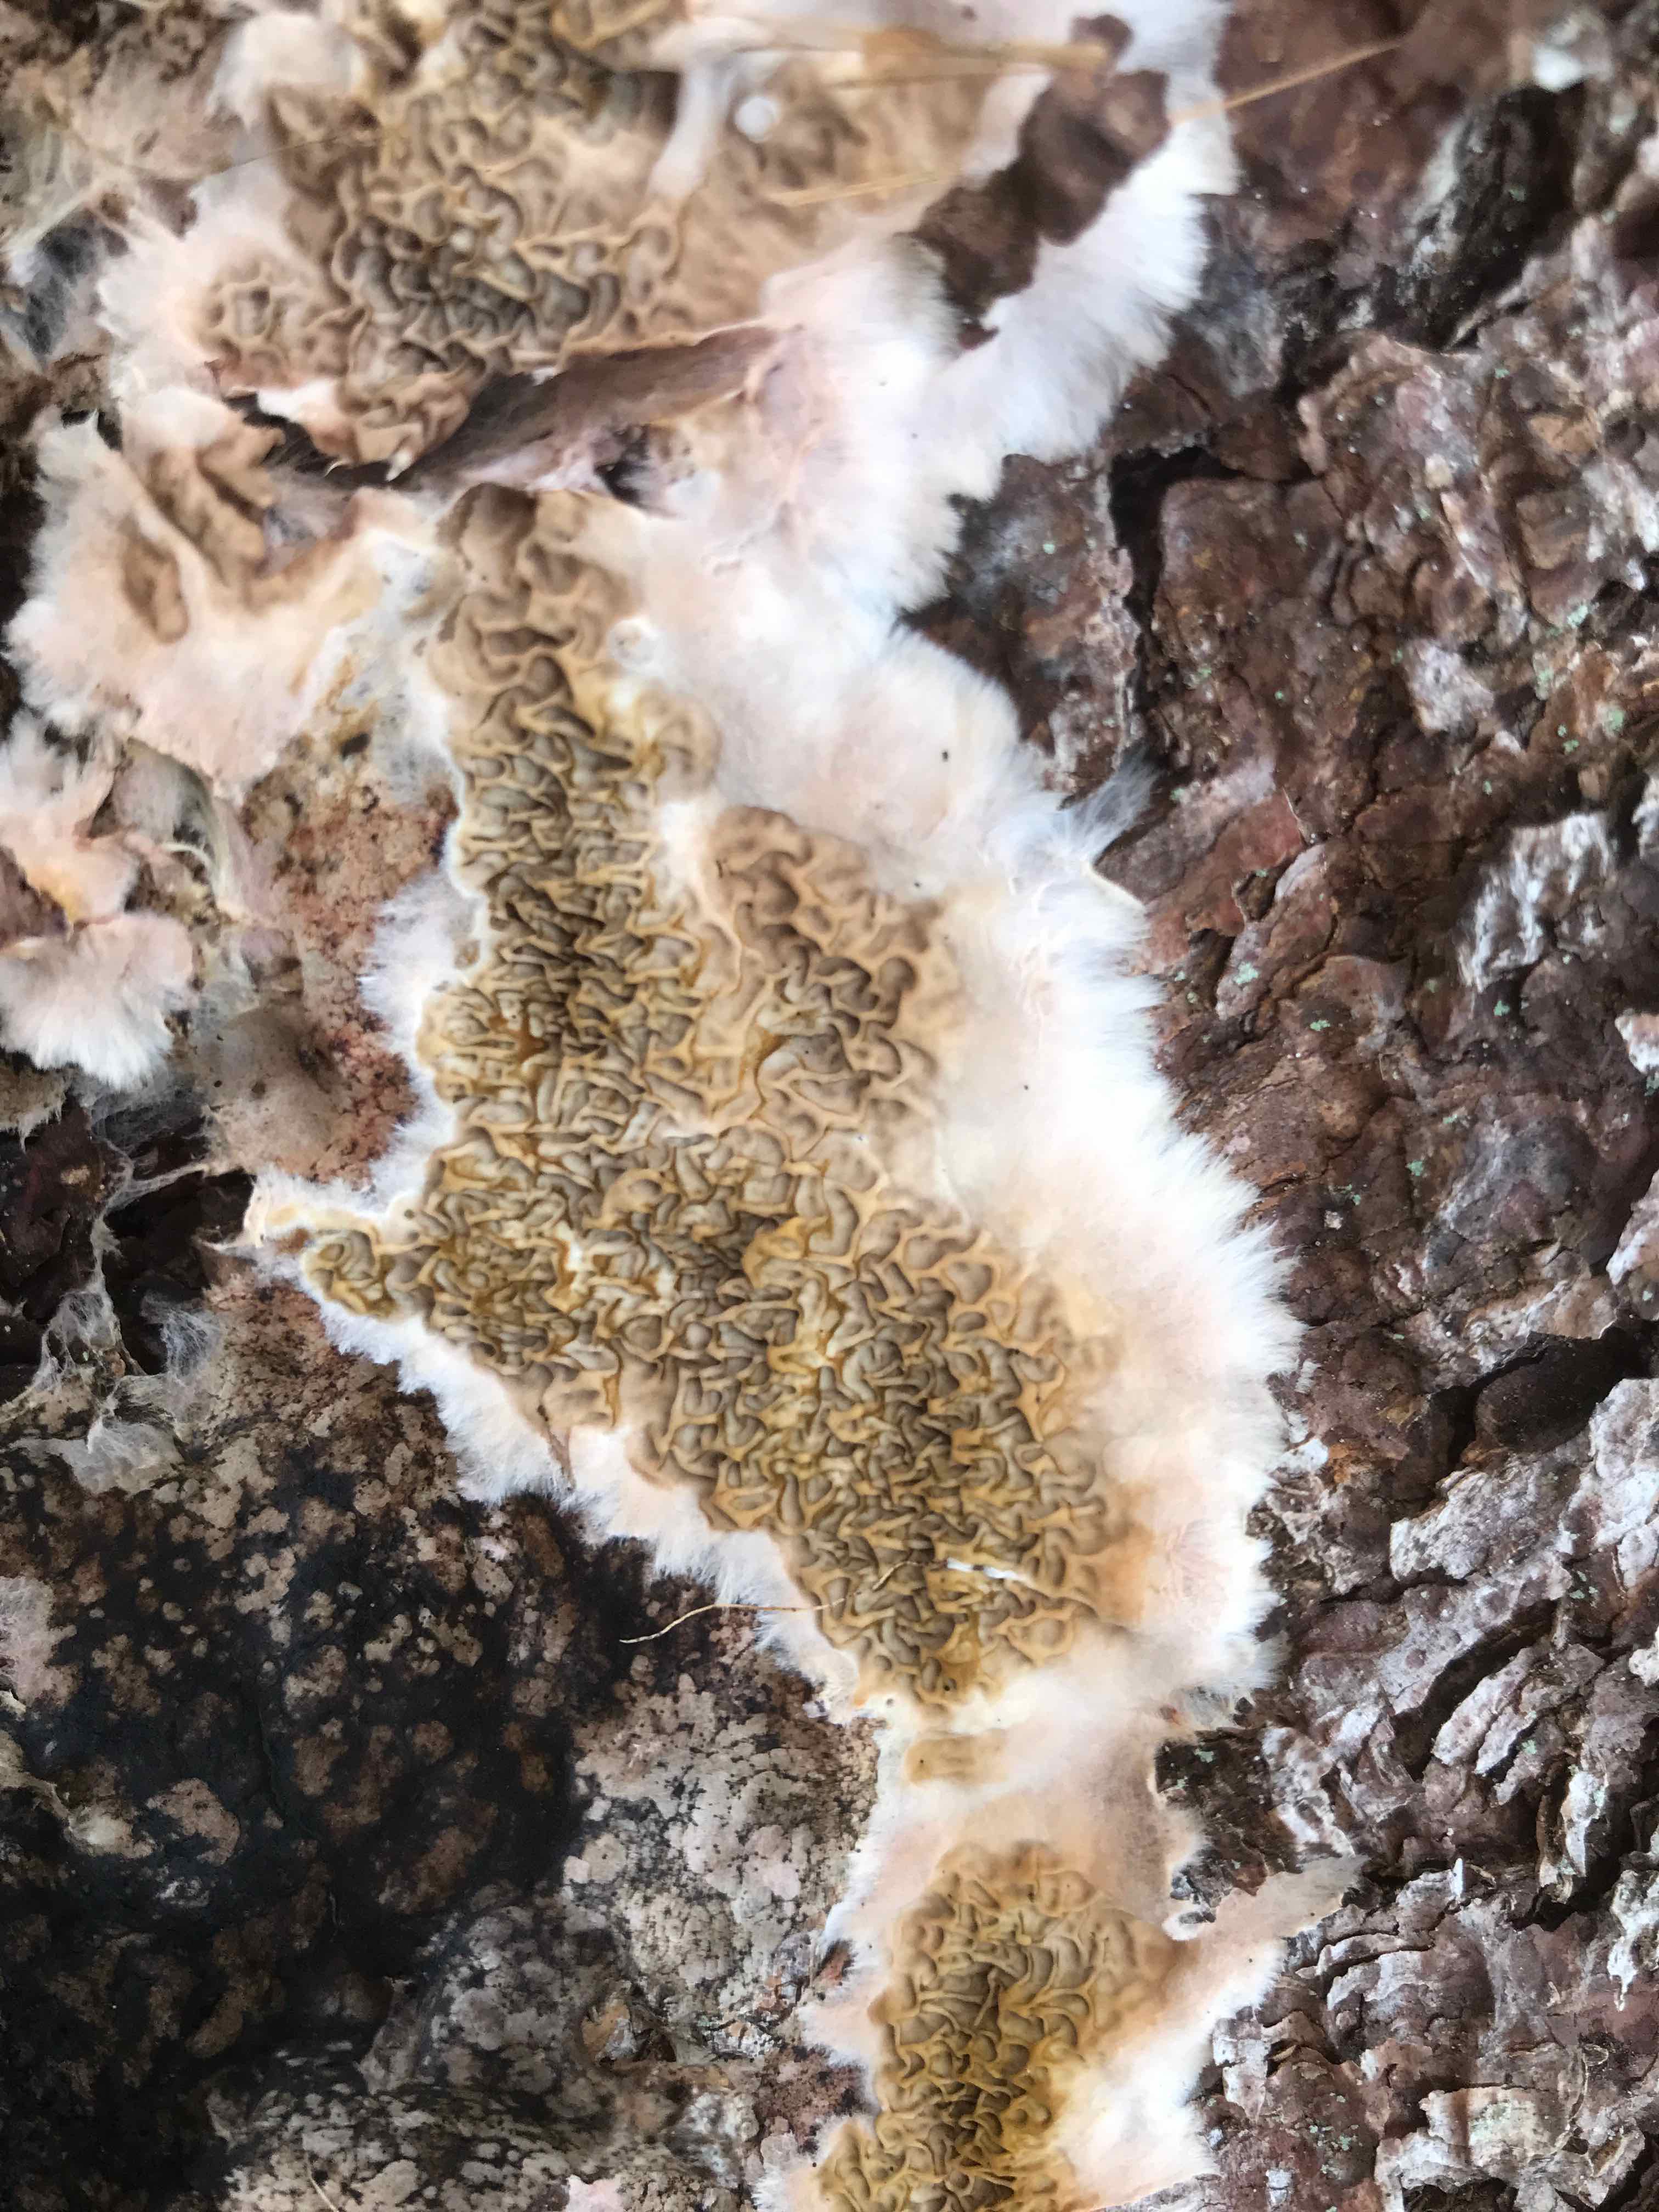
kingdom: Fungi
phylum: Basidiomycota
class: Agaricomycetes
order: Boletales
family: Serpulaceae
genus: Serpula
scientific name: Serpula himantioides
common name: tyndkødet hussvamp
